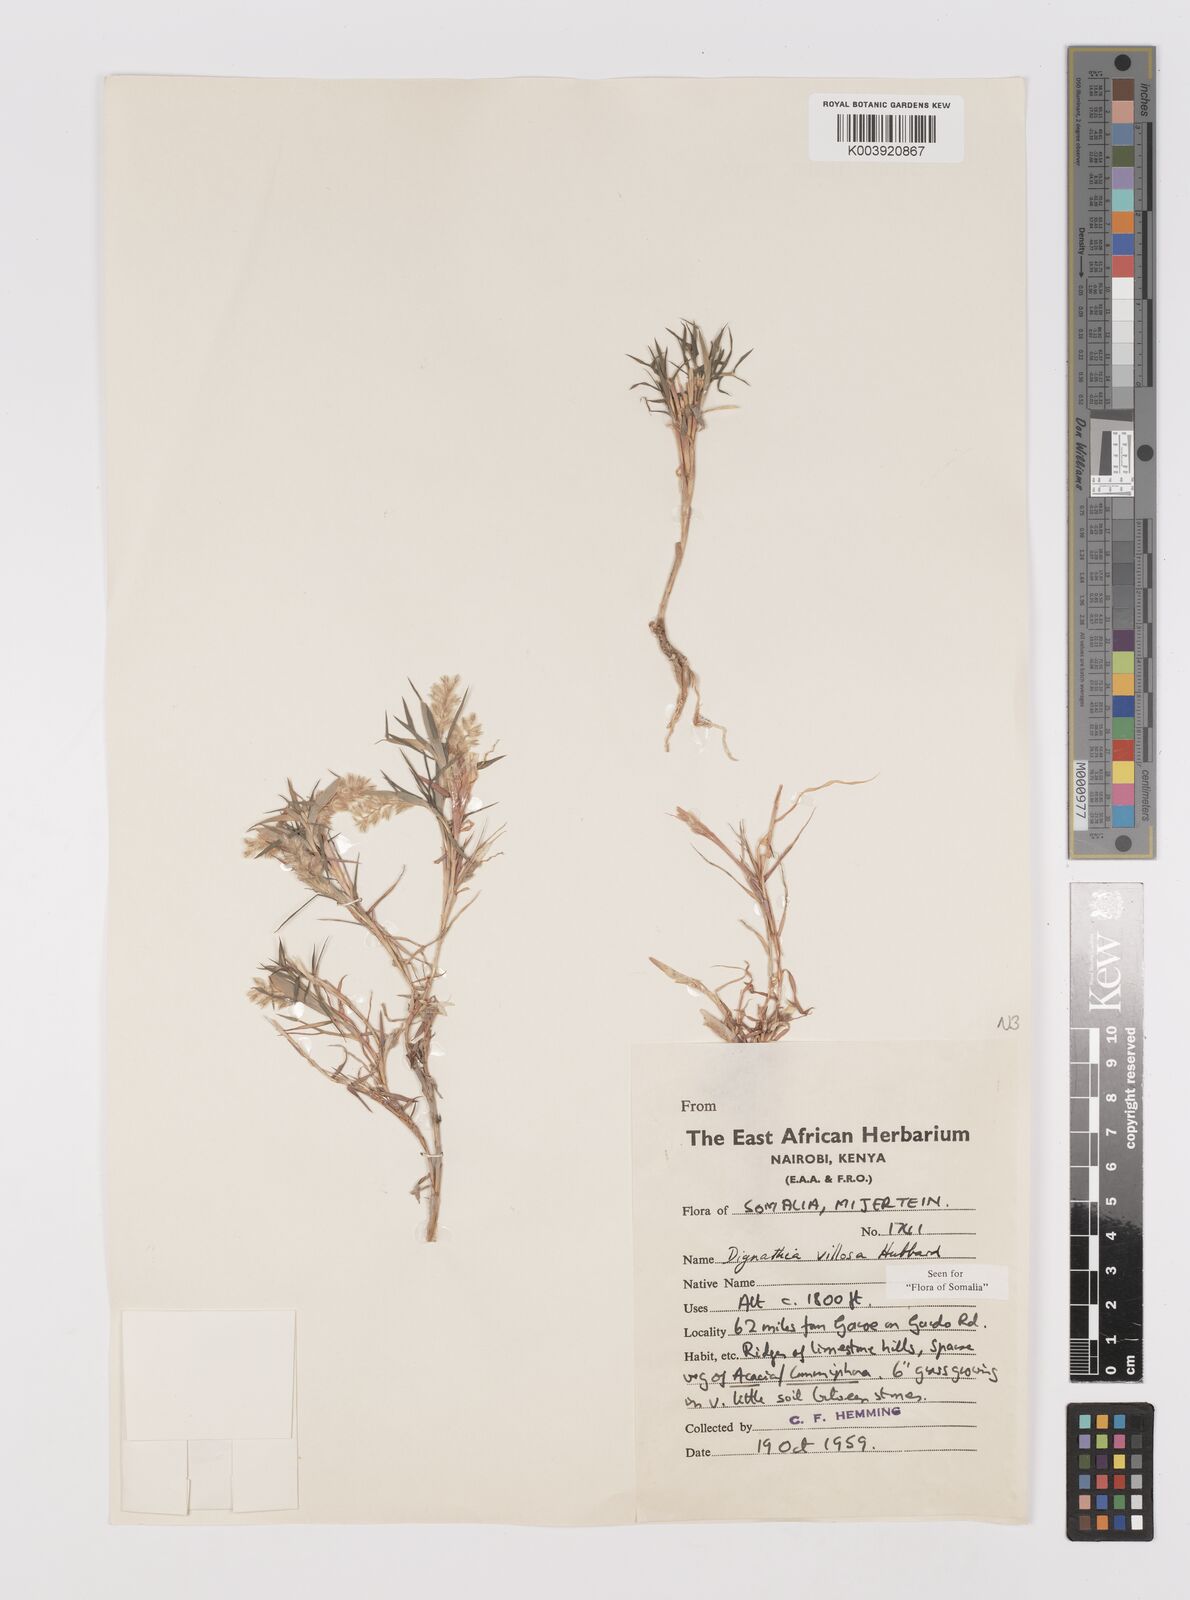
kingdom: Plantae
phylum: Tracheophyta
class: Liliopsida
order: Poales
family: Poaceae
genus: Dignathia
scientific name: Dignathia villosa
